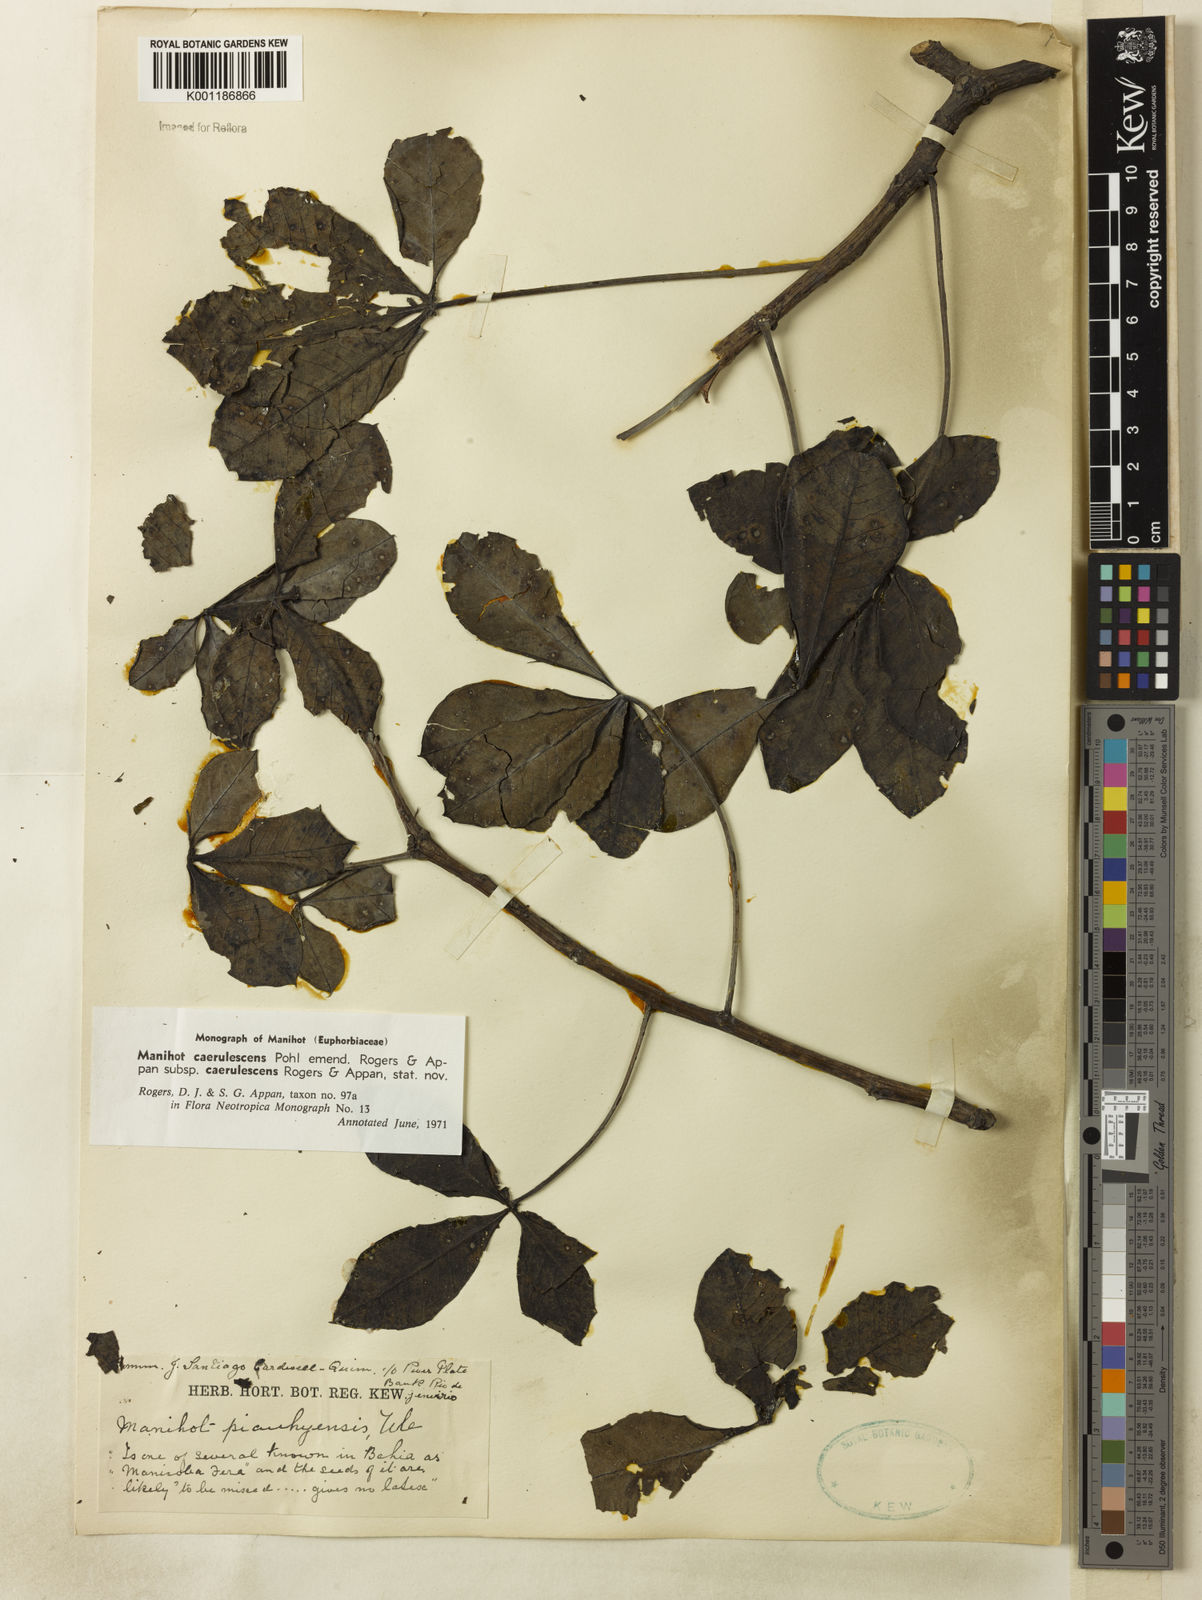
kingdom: Plantae
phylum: Tracheophyta
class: Magnoliopsida
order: Malpighiales
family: Euphorbiaceae
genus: Manihot
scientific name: Manihot caerulescens
